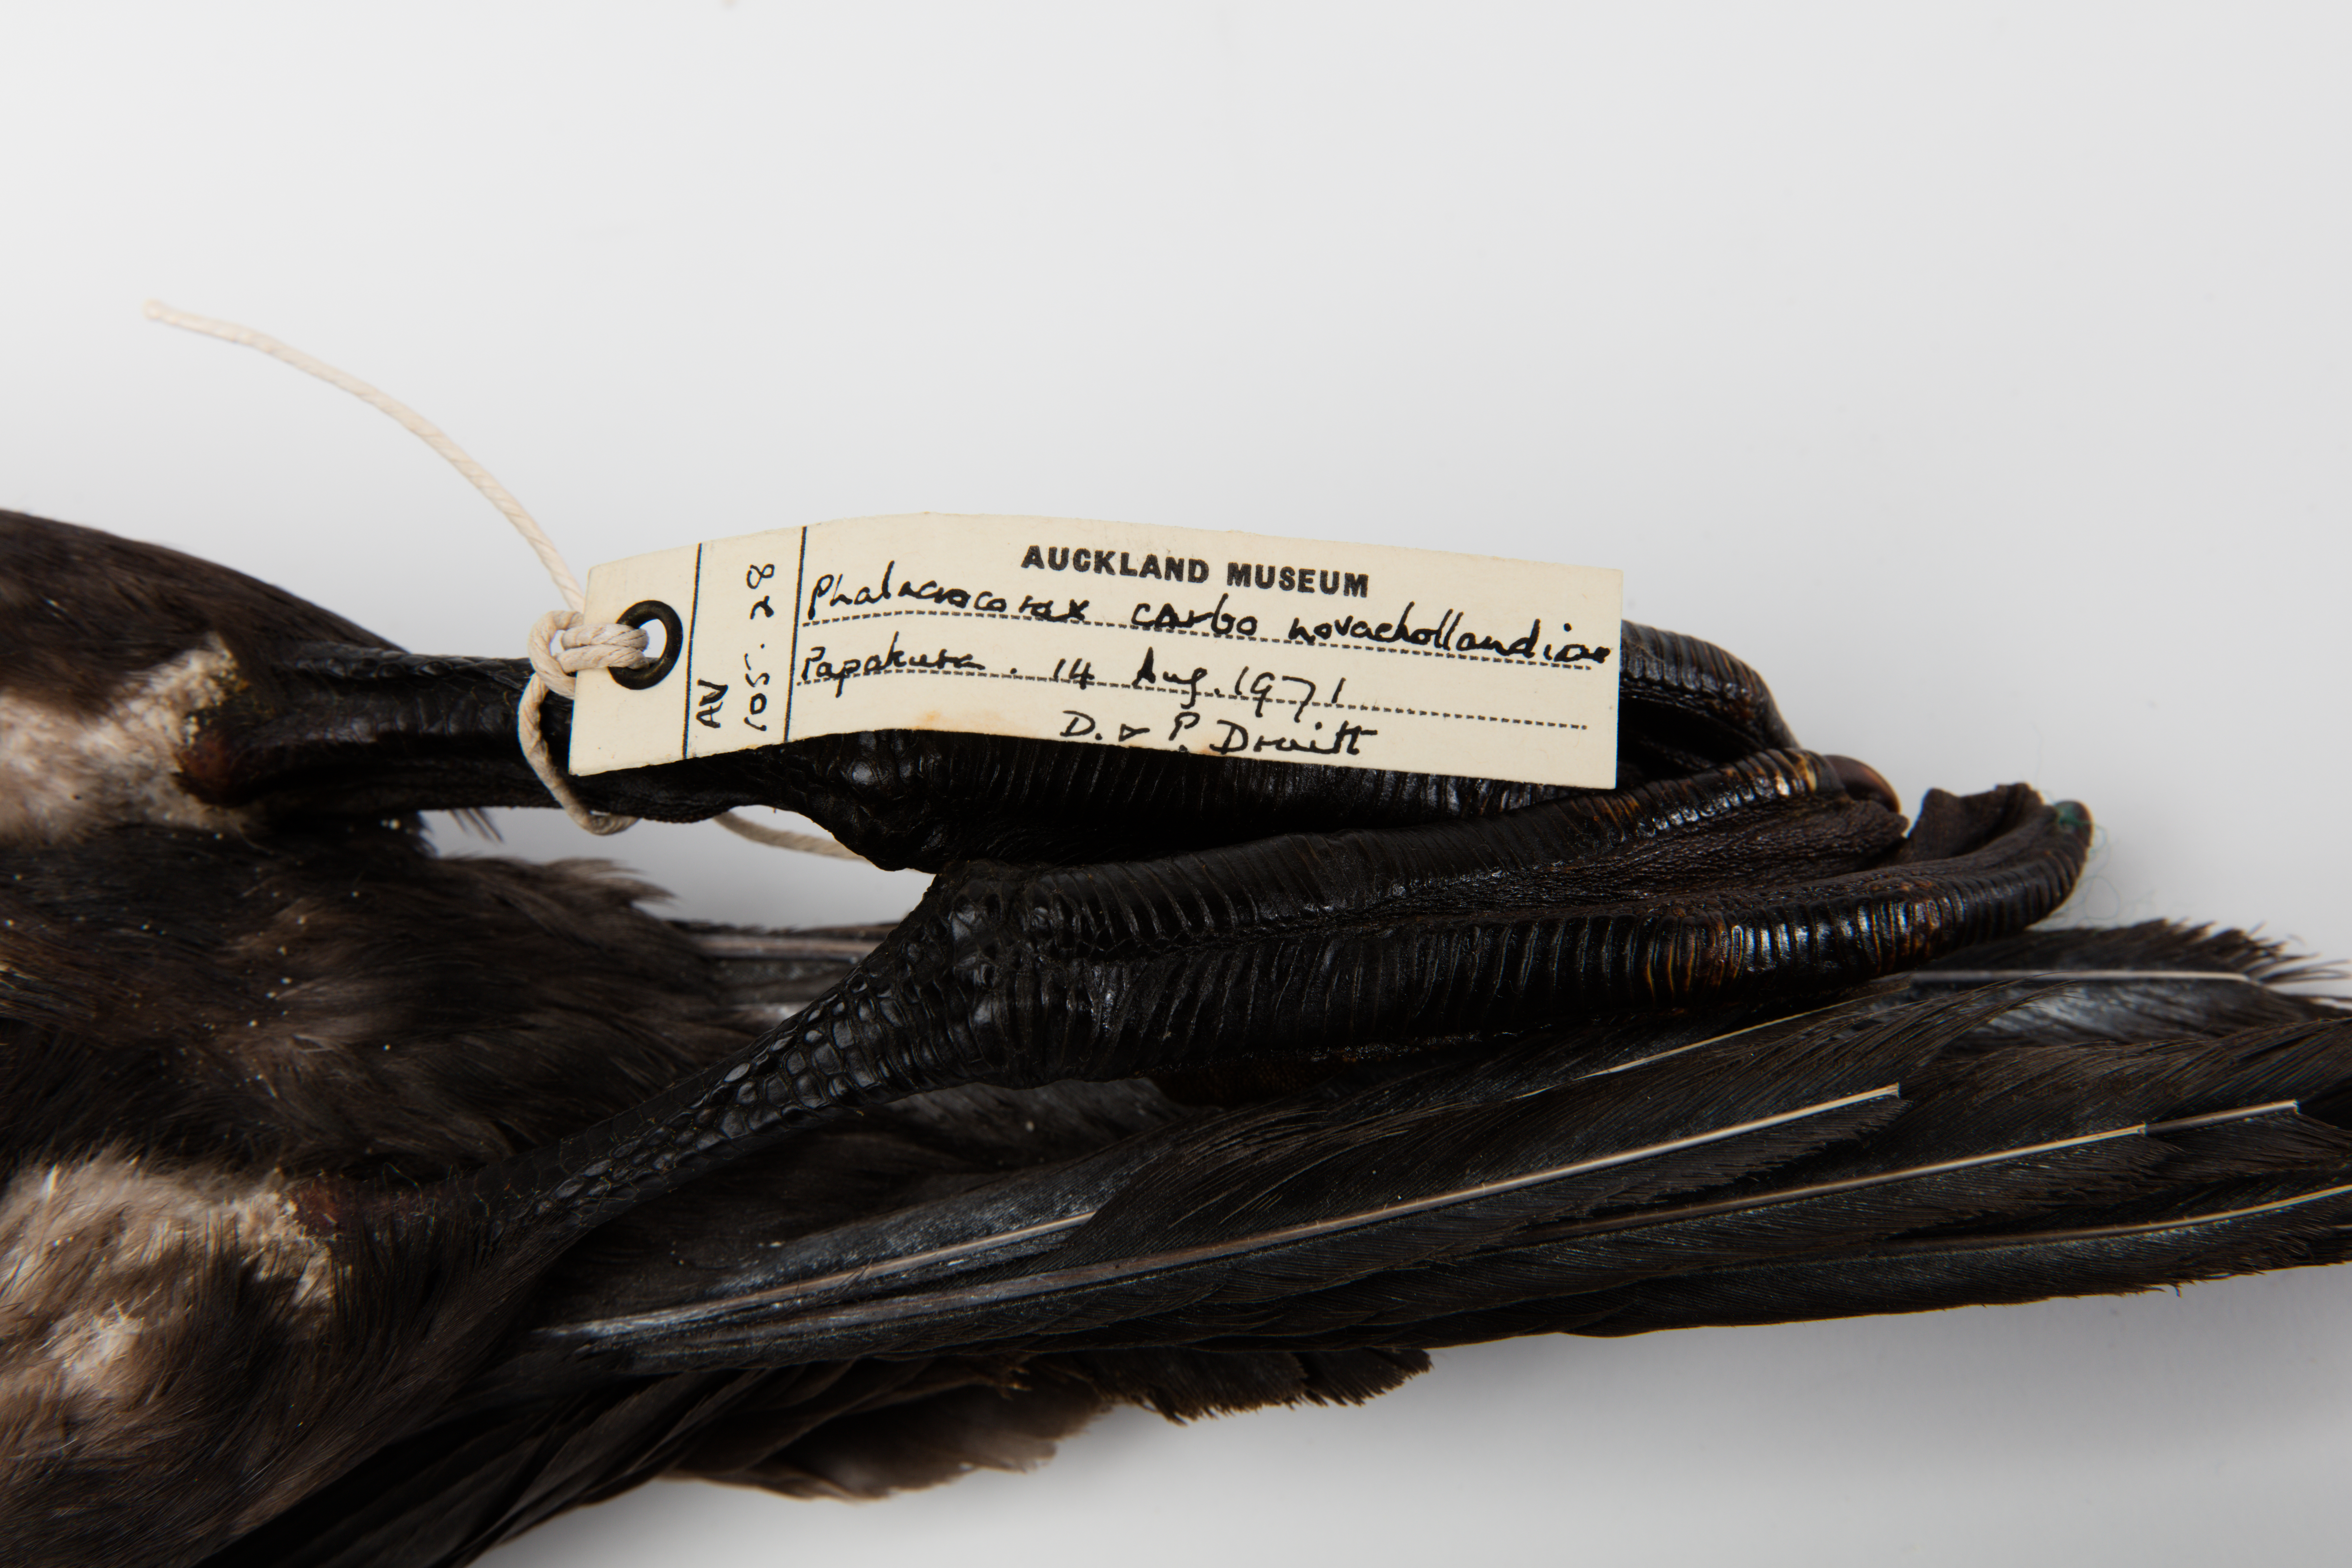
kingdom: Animalia
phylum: Chordata
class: Aves
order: Suliformes
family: Phalacrocoracidae
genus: Phalacrocorax
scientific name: Phalacrocorax carbo
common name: Great cormorant
